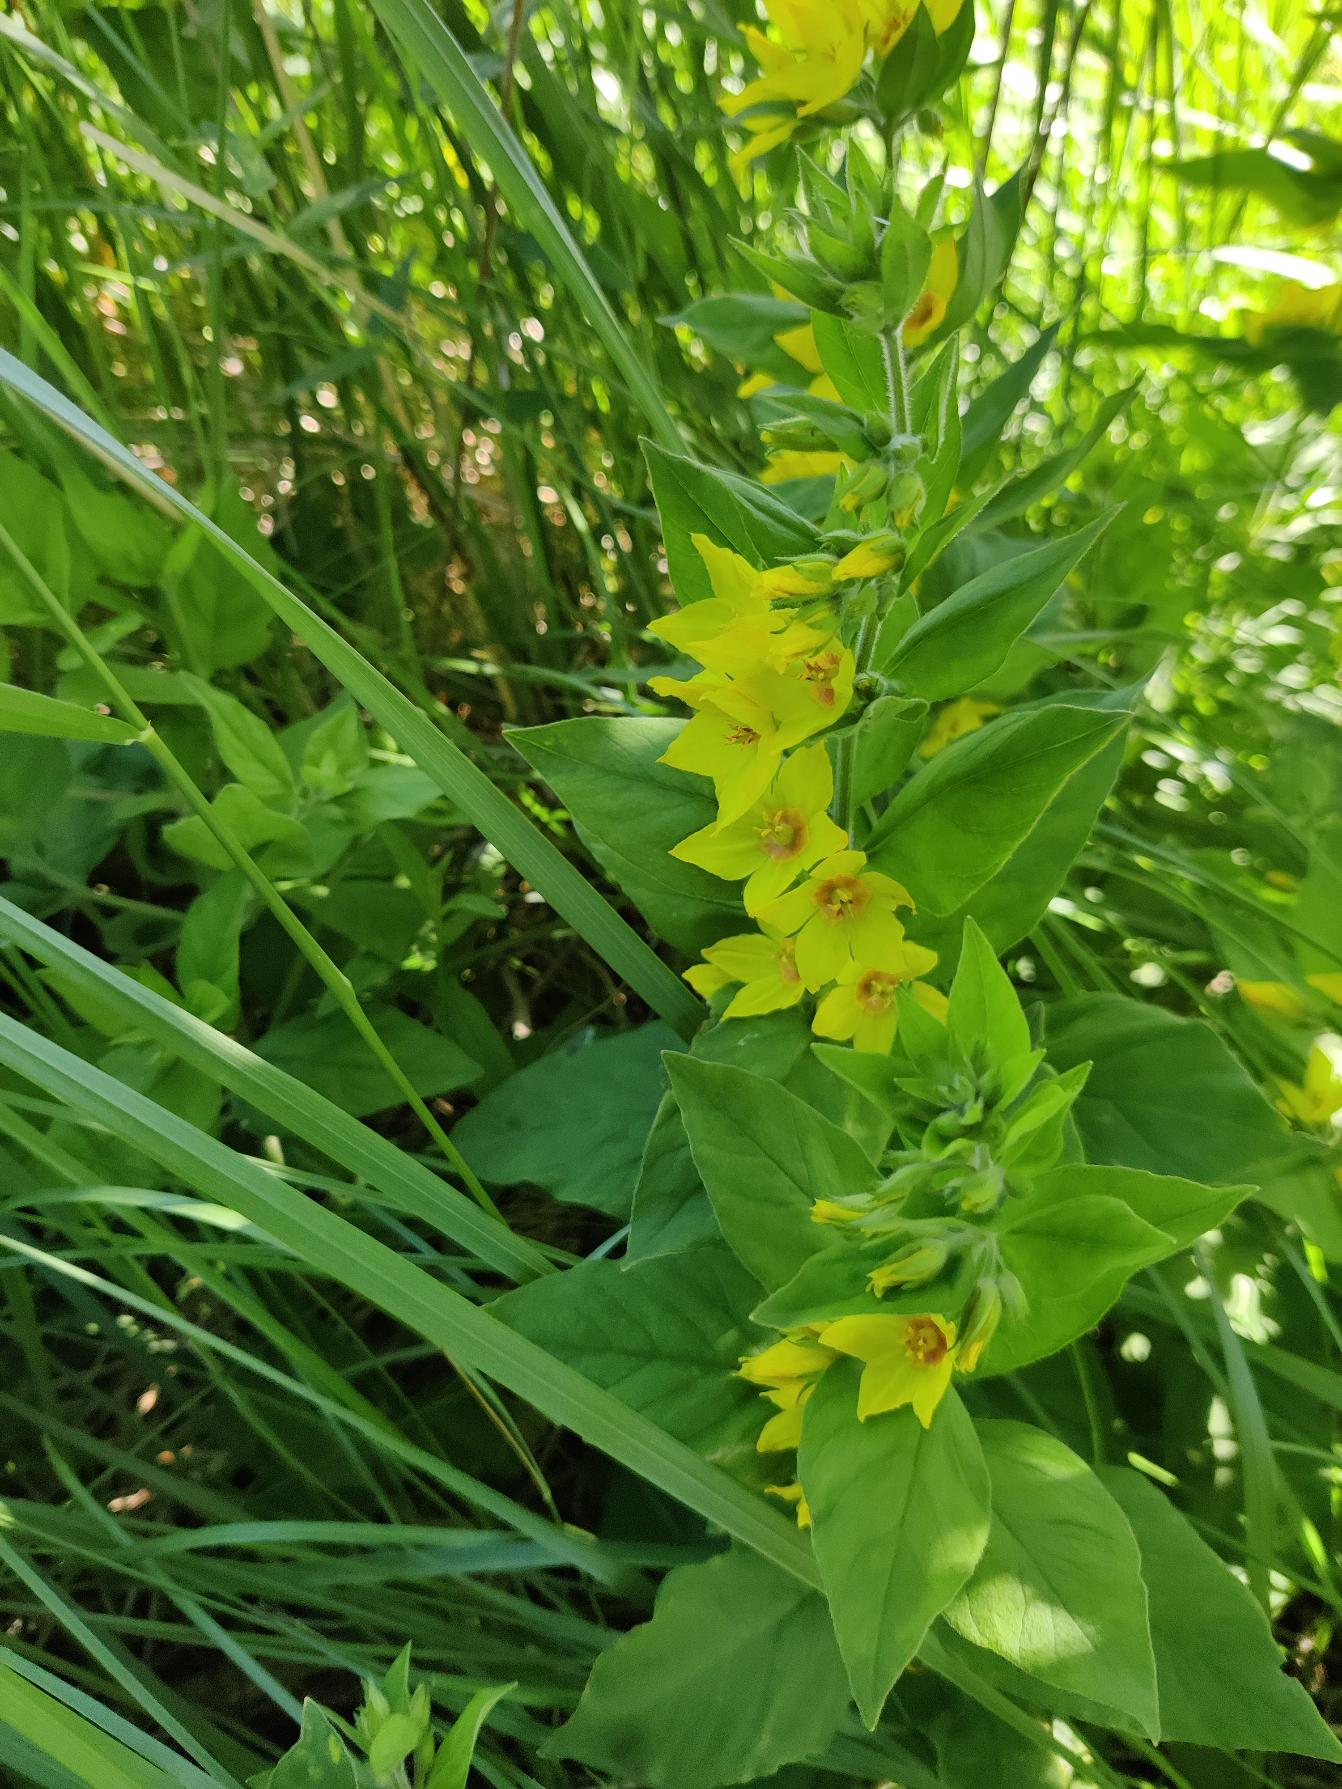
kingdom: Plantae
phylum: Tracheophyta
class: Magnoliopsida
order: Ericales
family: Primulaceae
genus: Lysimachia
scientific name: Lysimachia punctata
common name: Prikbladet fredløs
